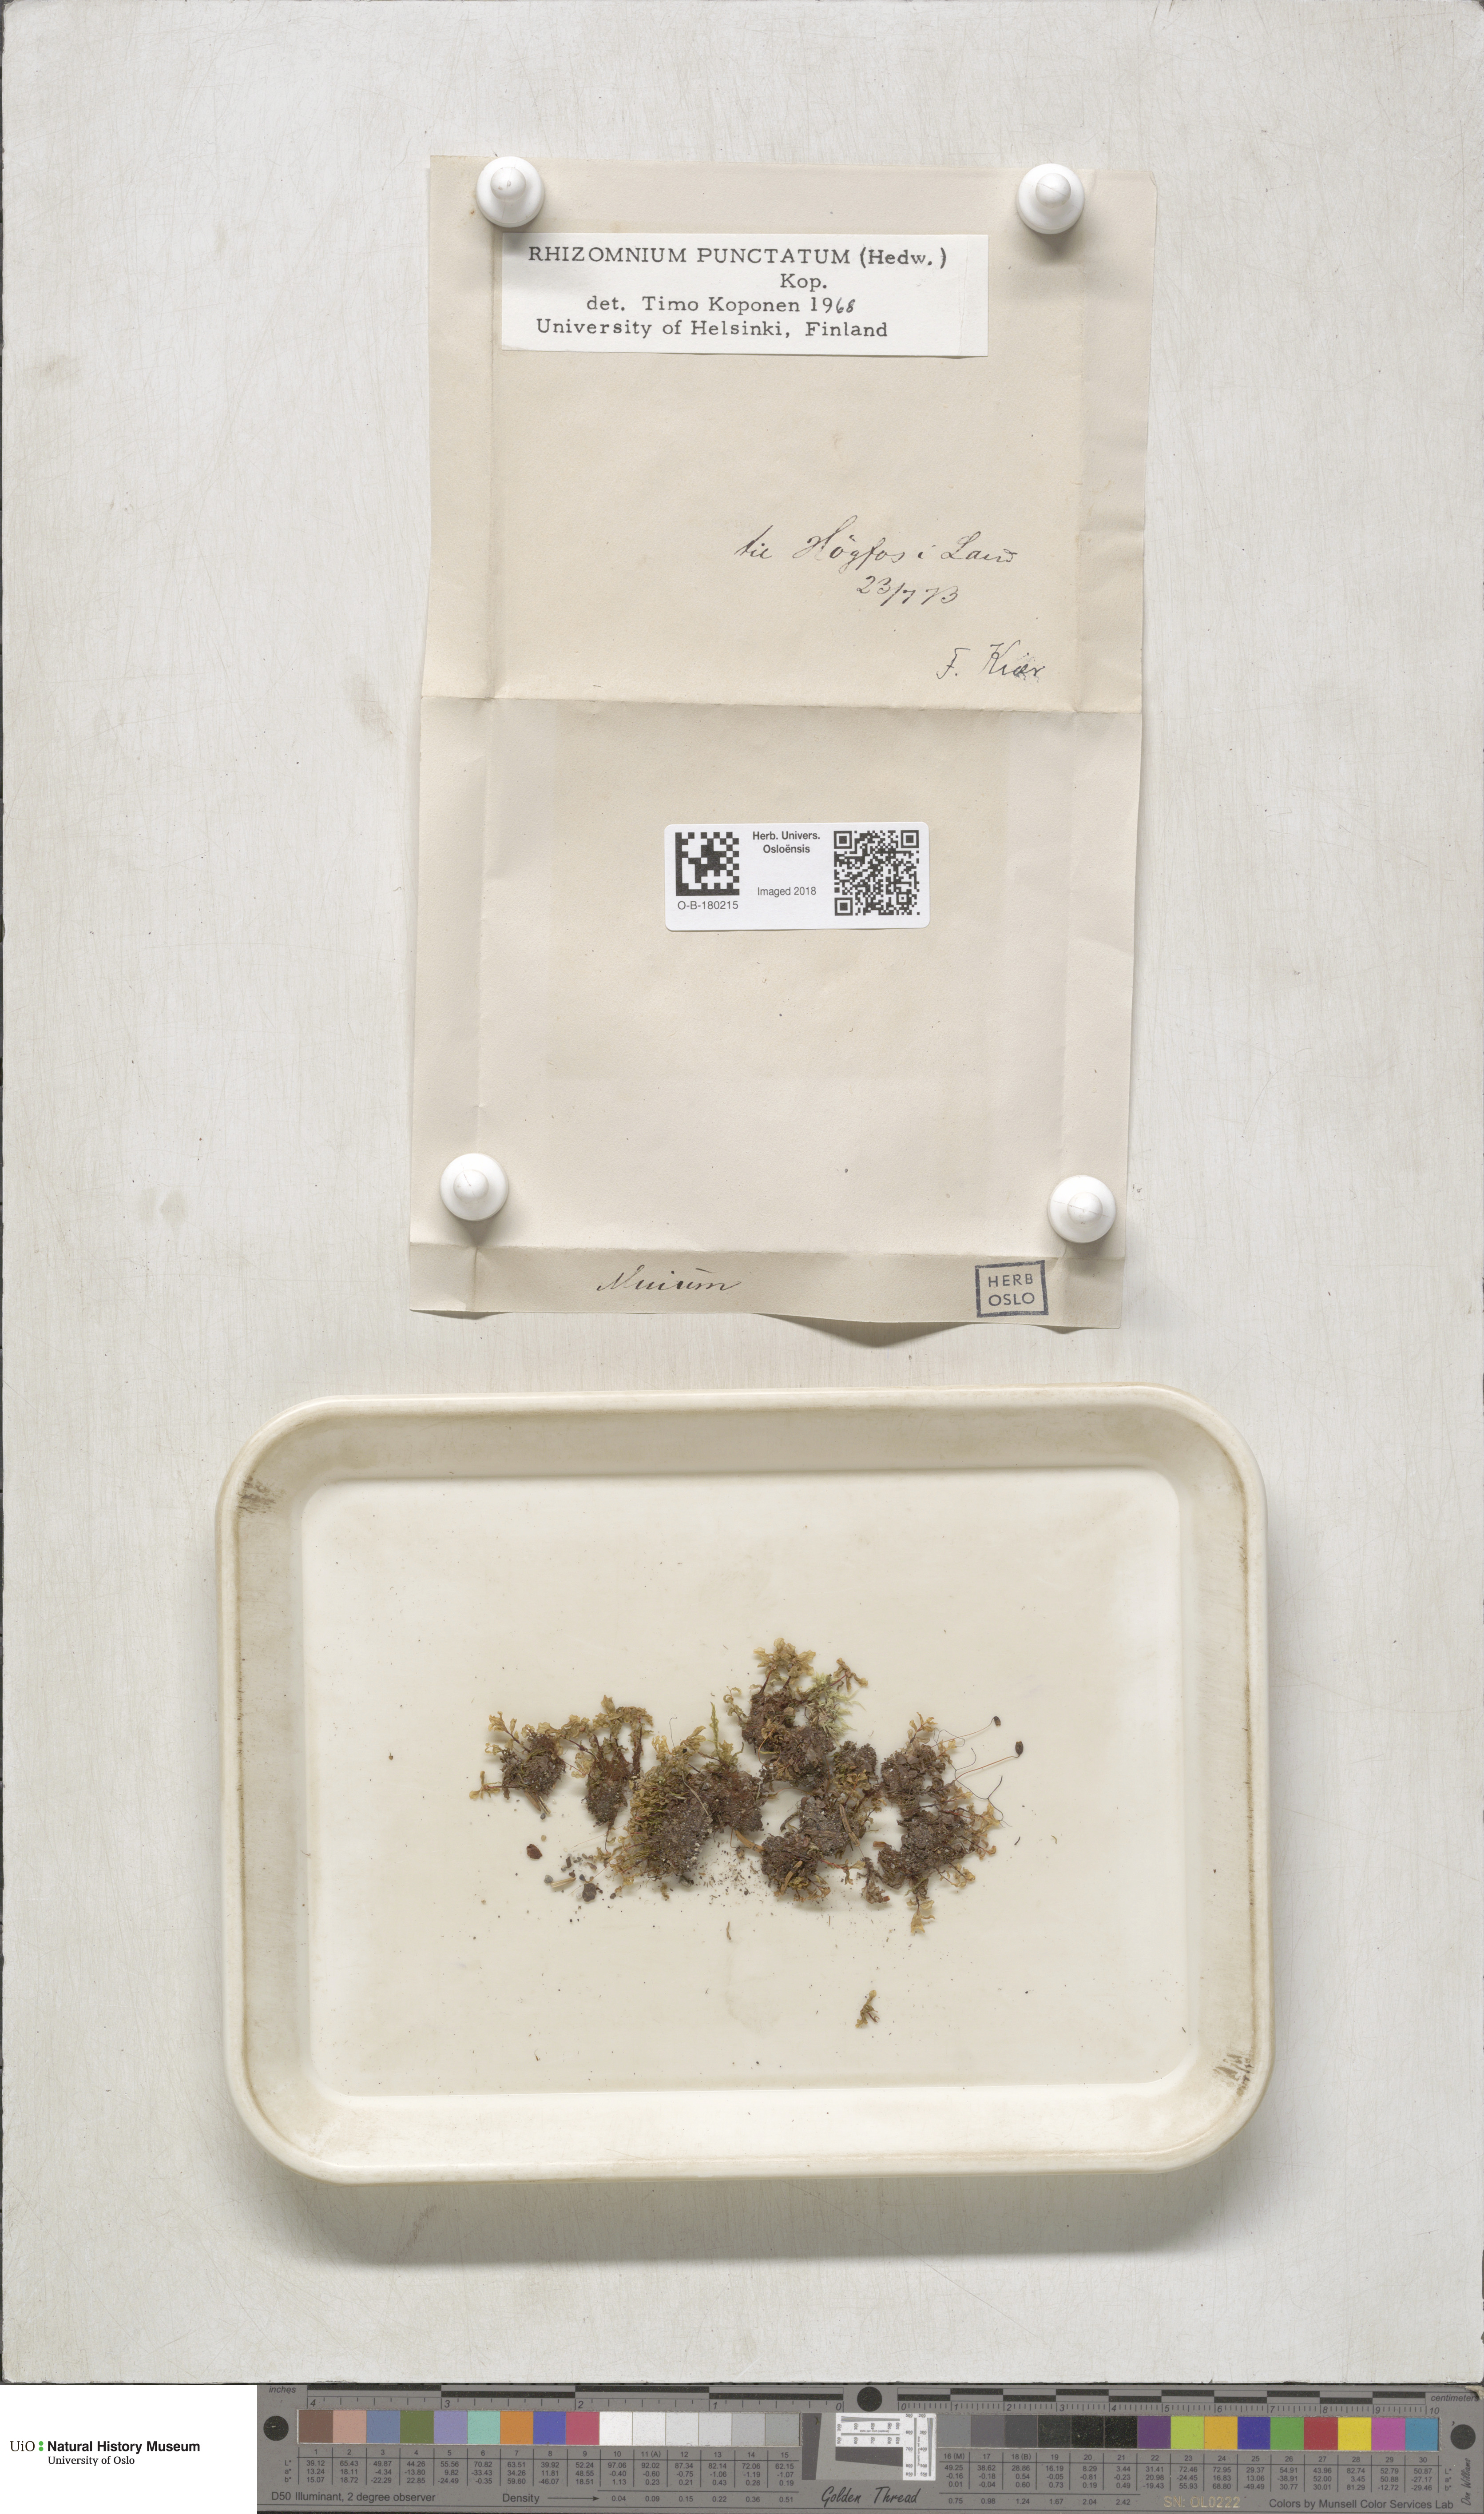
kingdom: Plantae
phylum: Bryophyta
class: Bryopsida
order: Bryales
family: Mniaceae
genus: Rhizomnium
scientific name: Rhizomnium punctatum
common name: Dotted leafy moss
